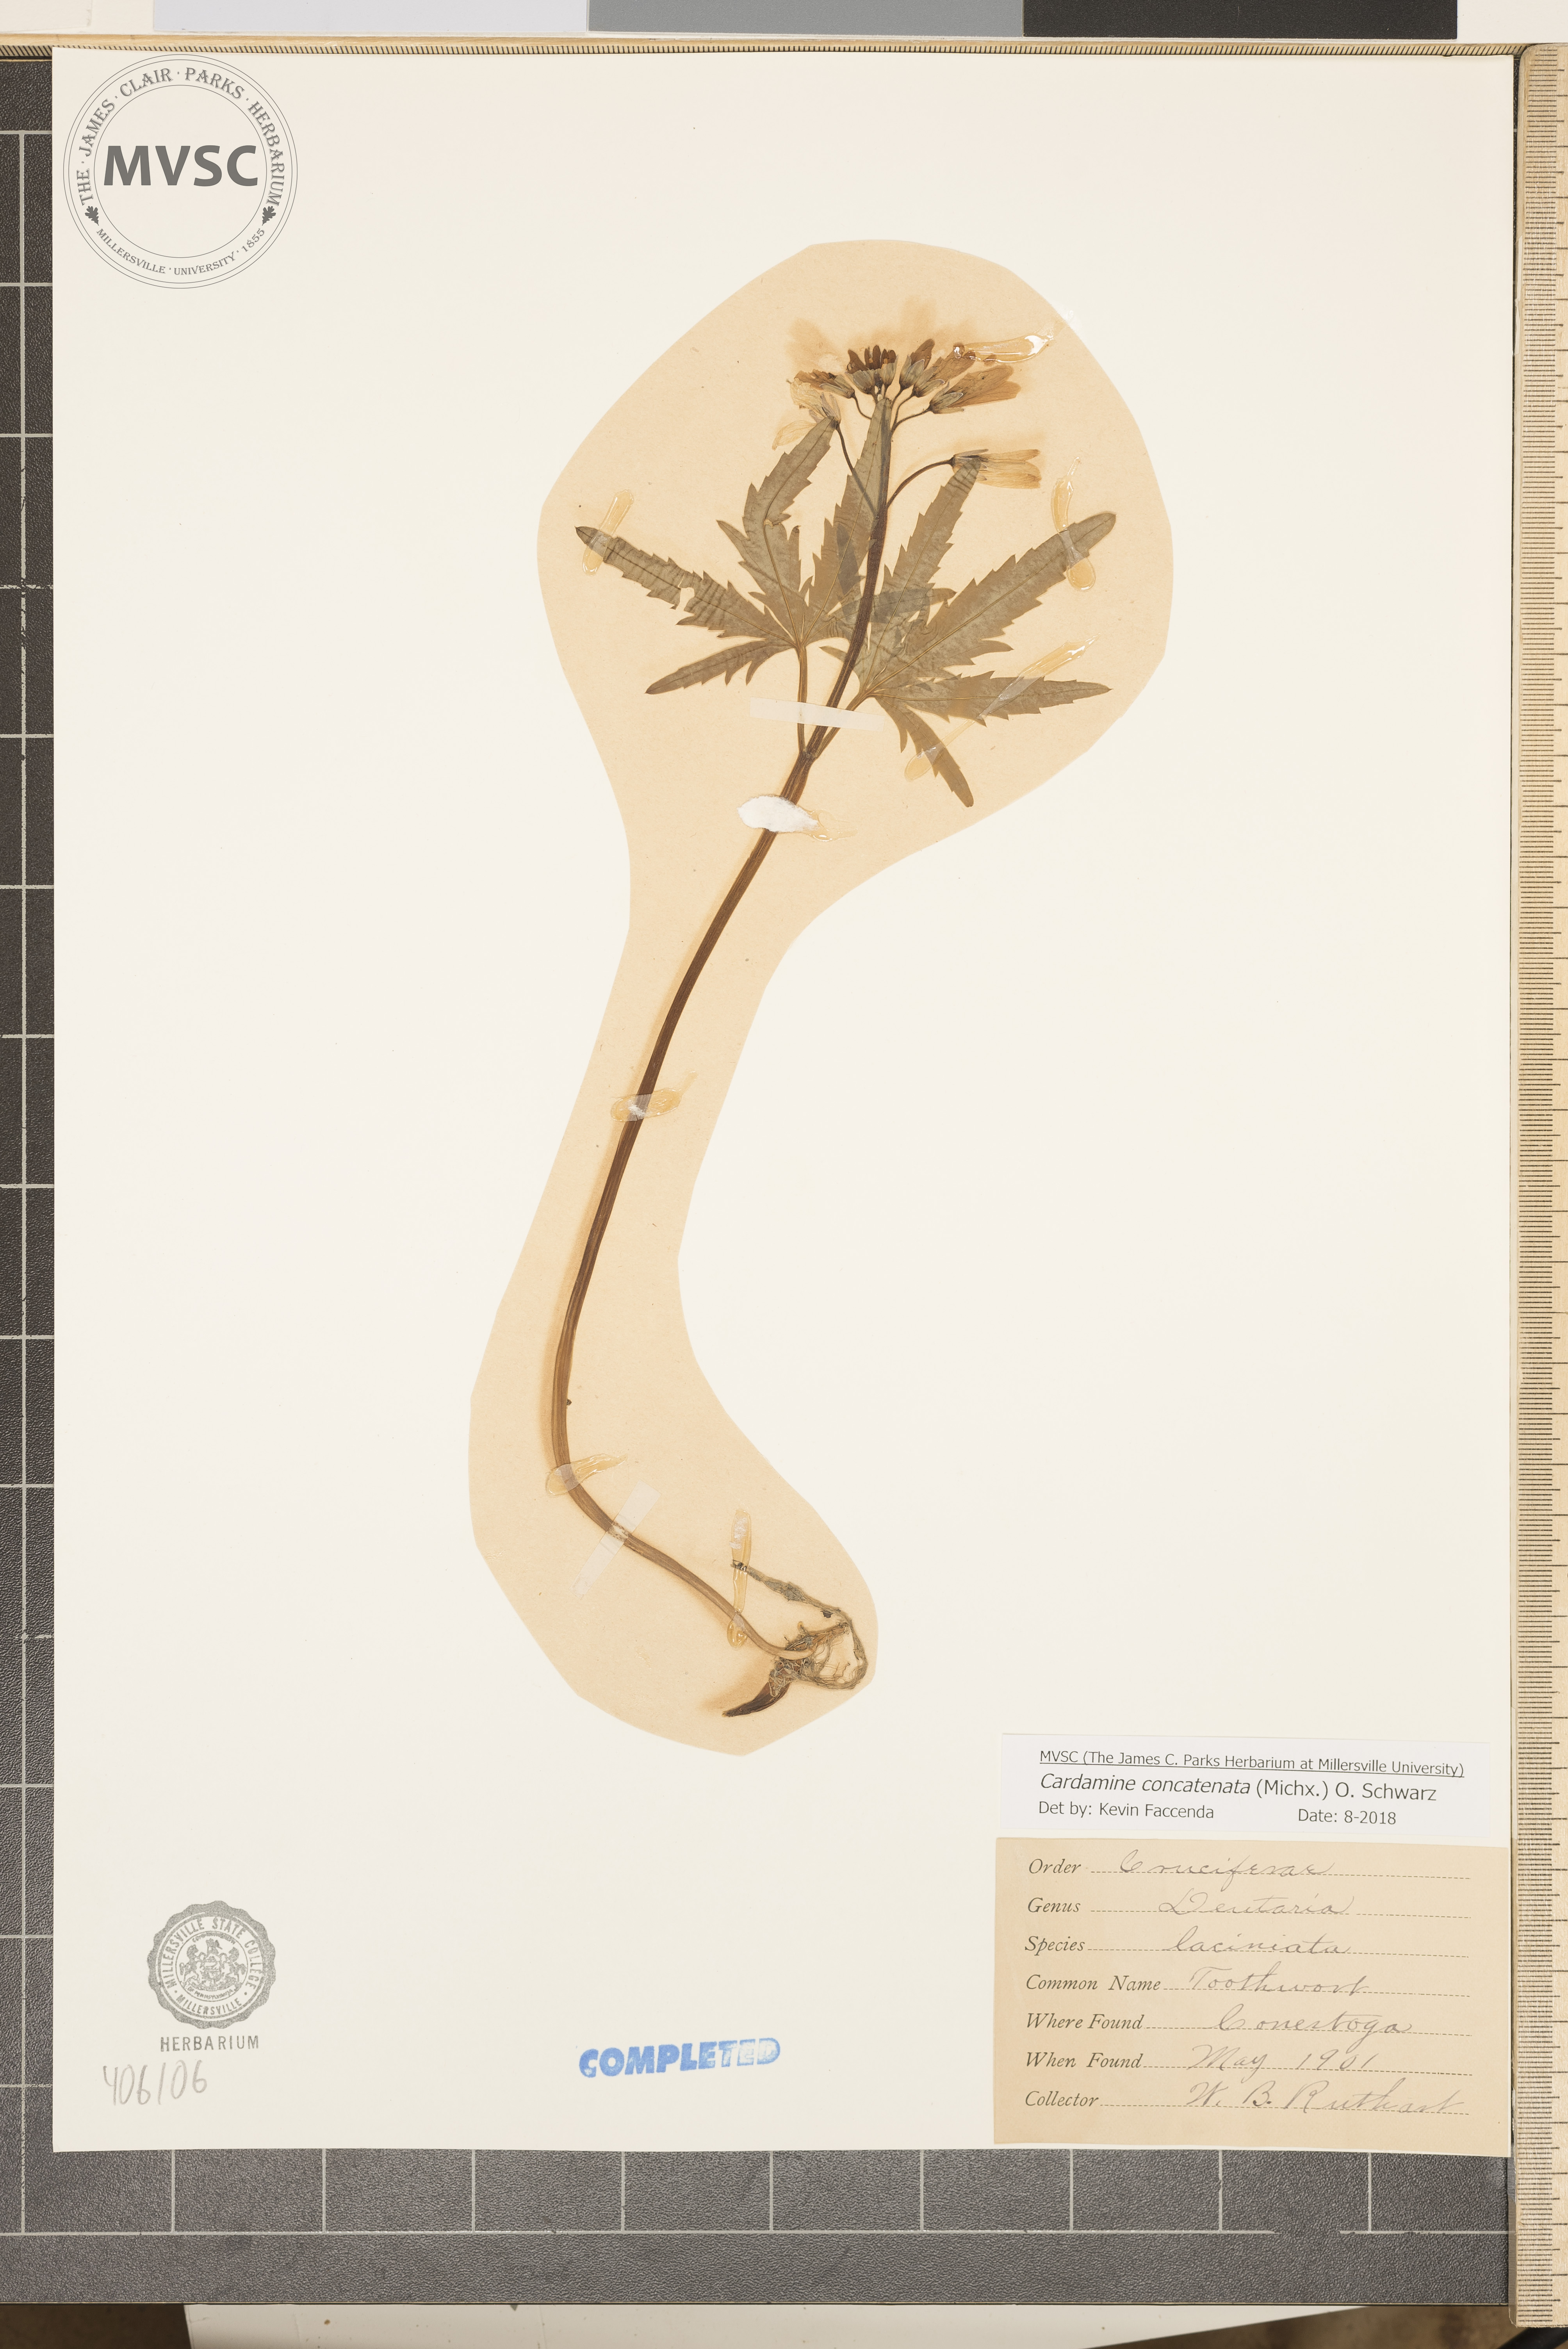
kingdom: Plantae
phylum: Tracheophyta
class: Magnoliopsida
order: Brassicales
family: Brassicaceae
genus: Cardamine
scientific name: Cardamine concatenata
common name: Cut-leaf toothcup
